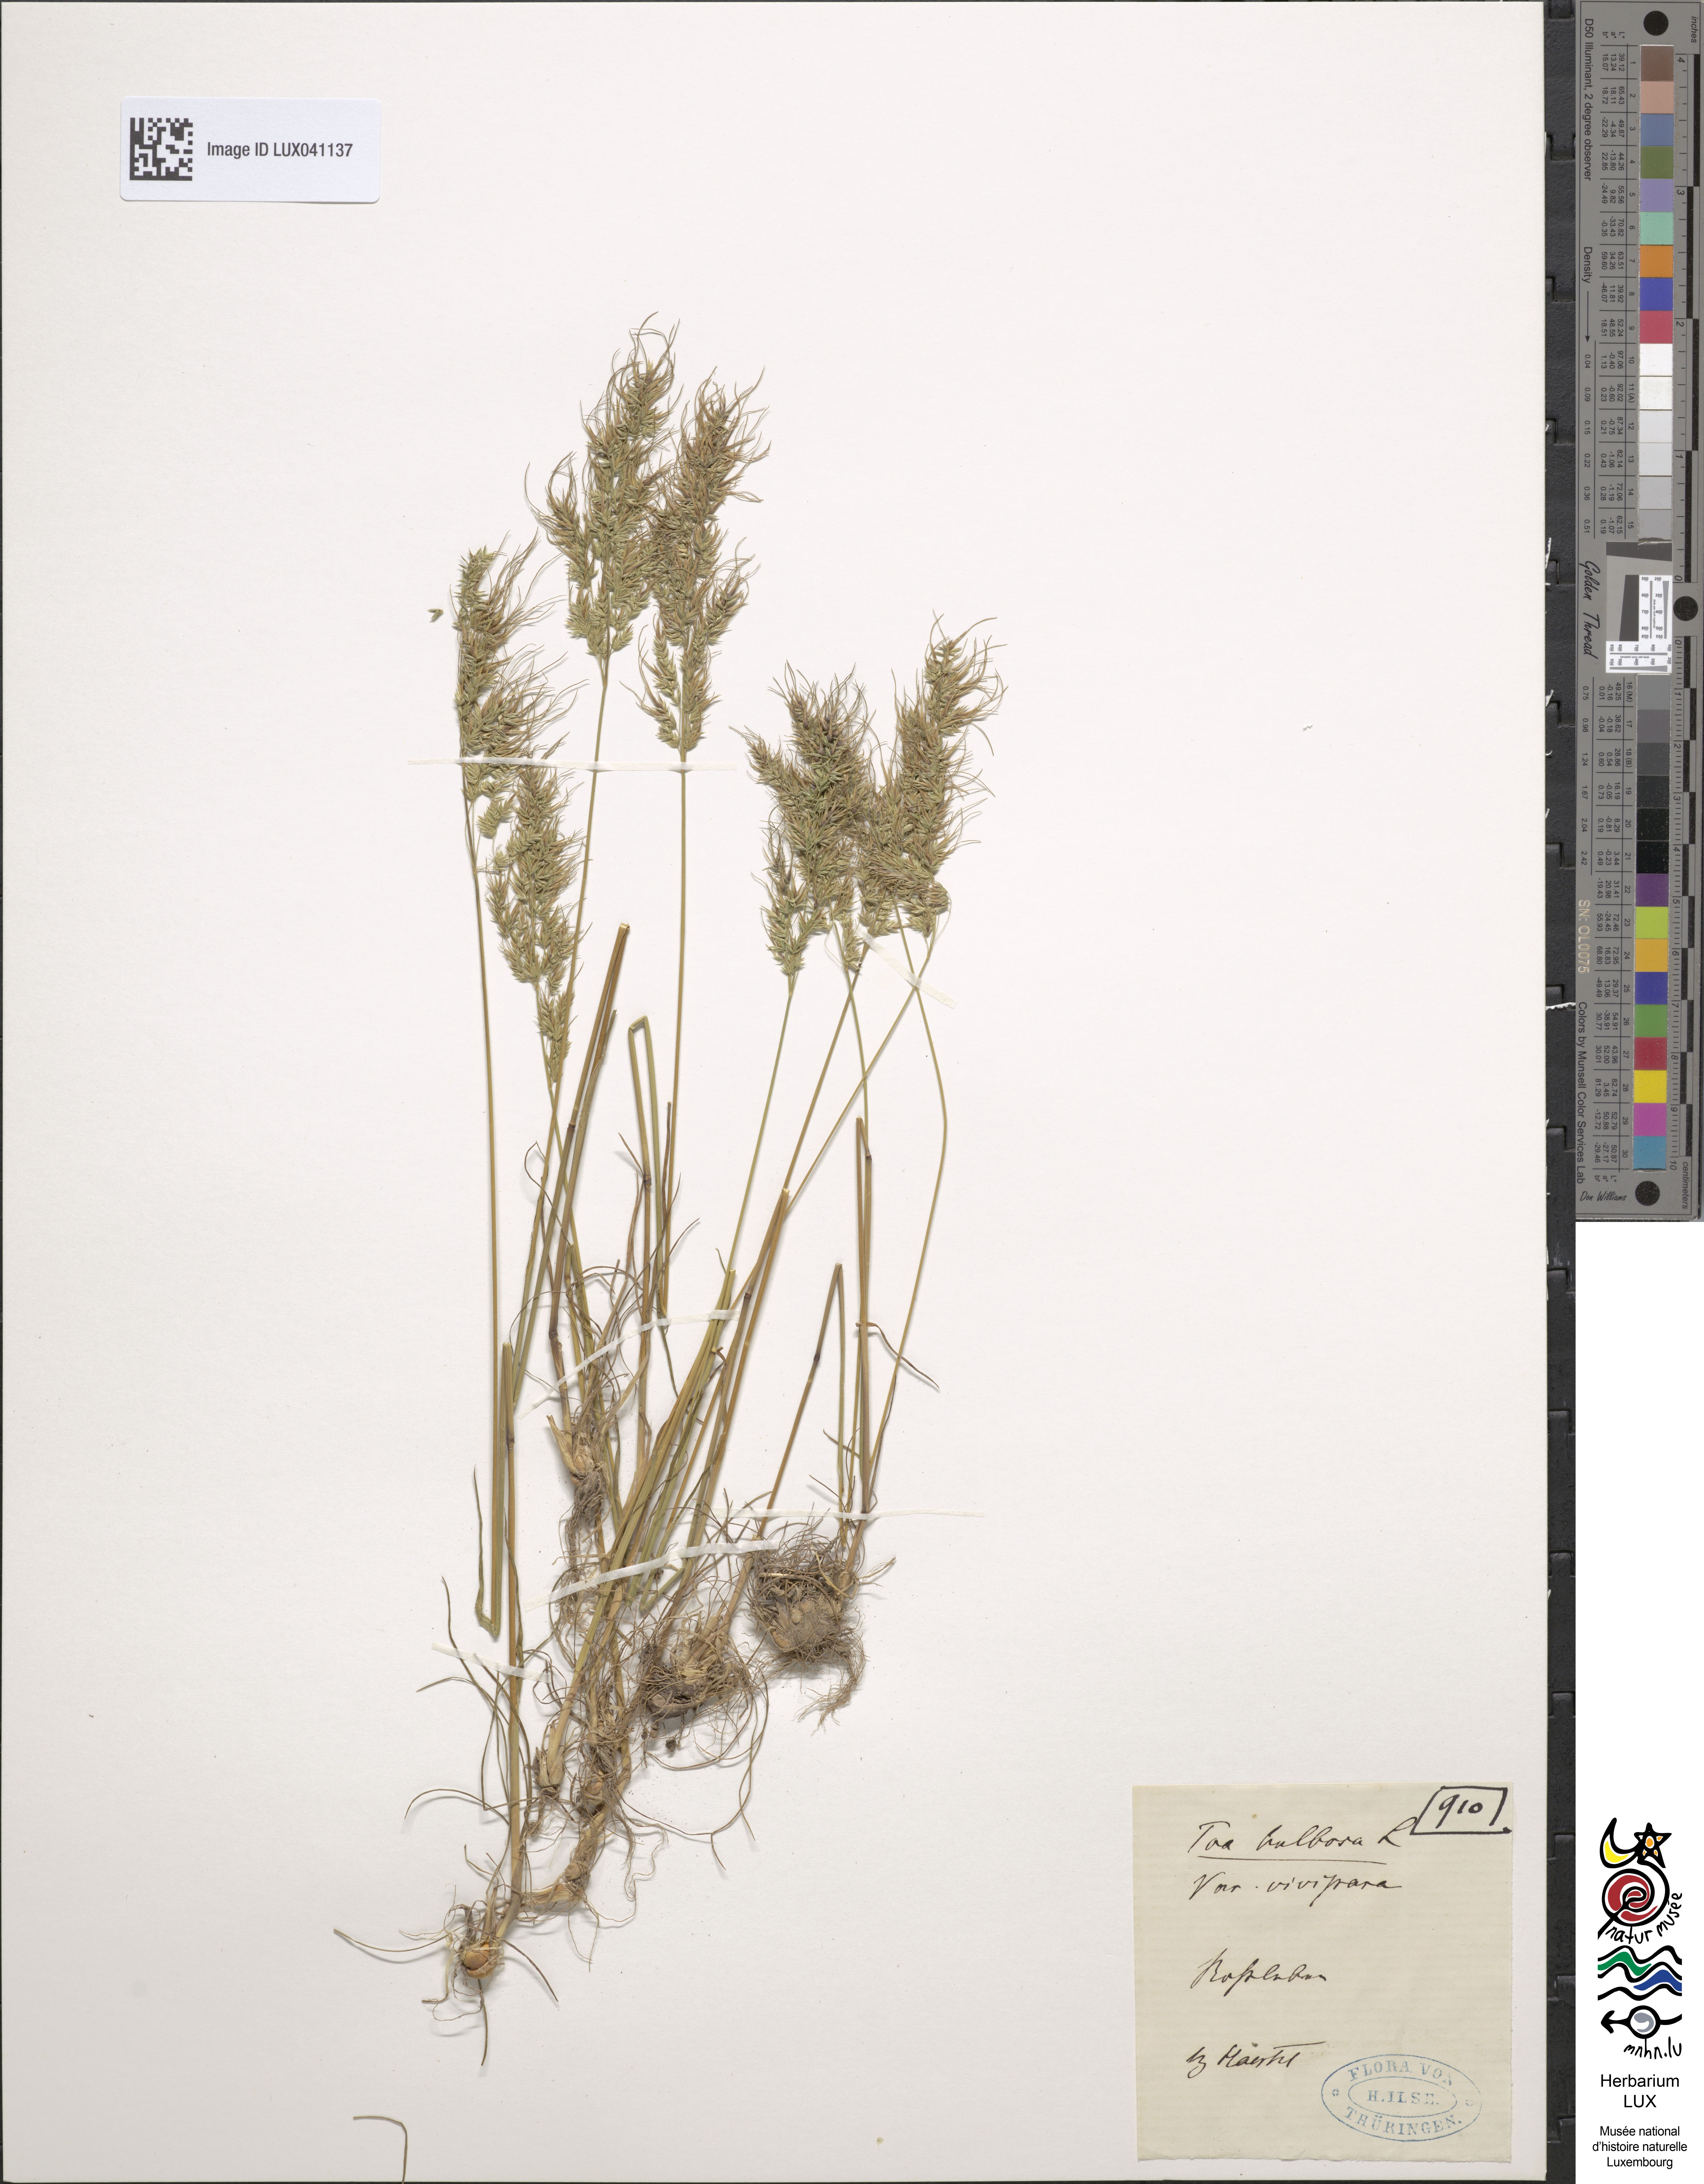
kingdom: Plantae
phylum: Tracheophyta
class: Liliopsida
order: Poales
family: Poaceae
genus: Poa
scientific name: Poa bulbosa
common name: Bulbous bluegrass
